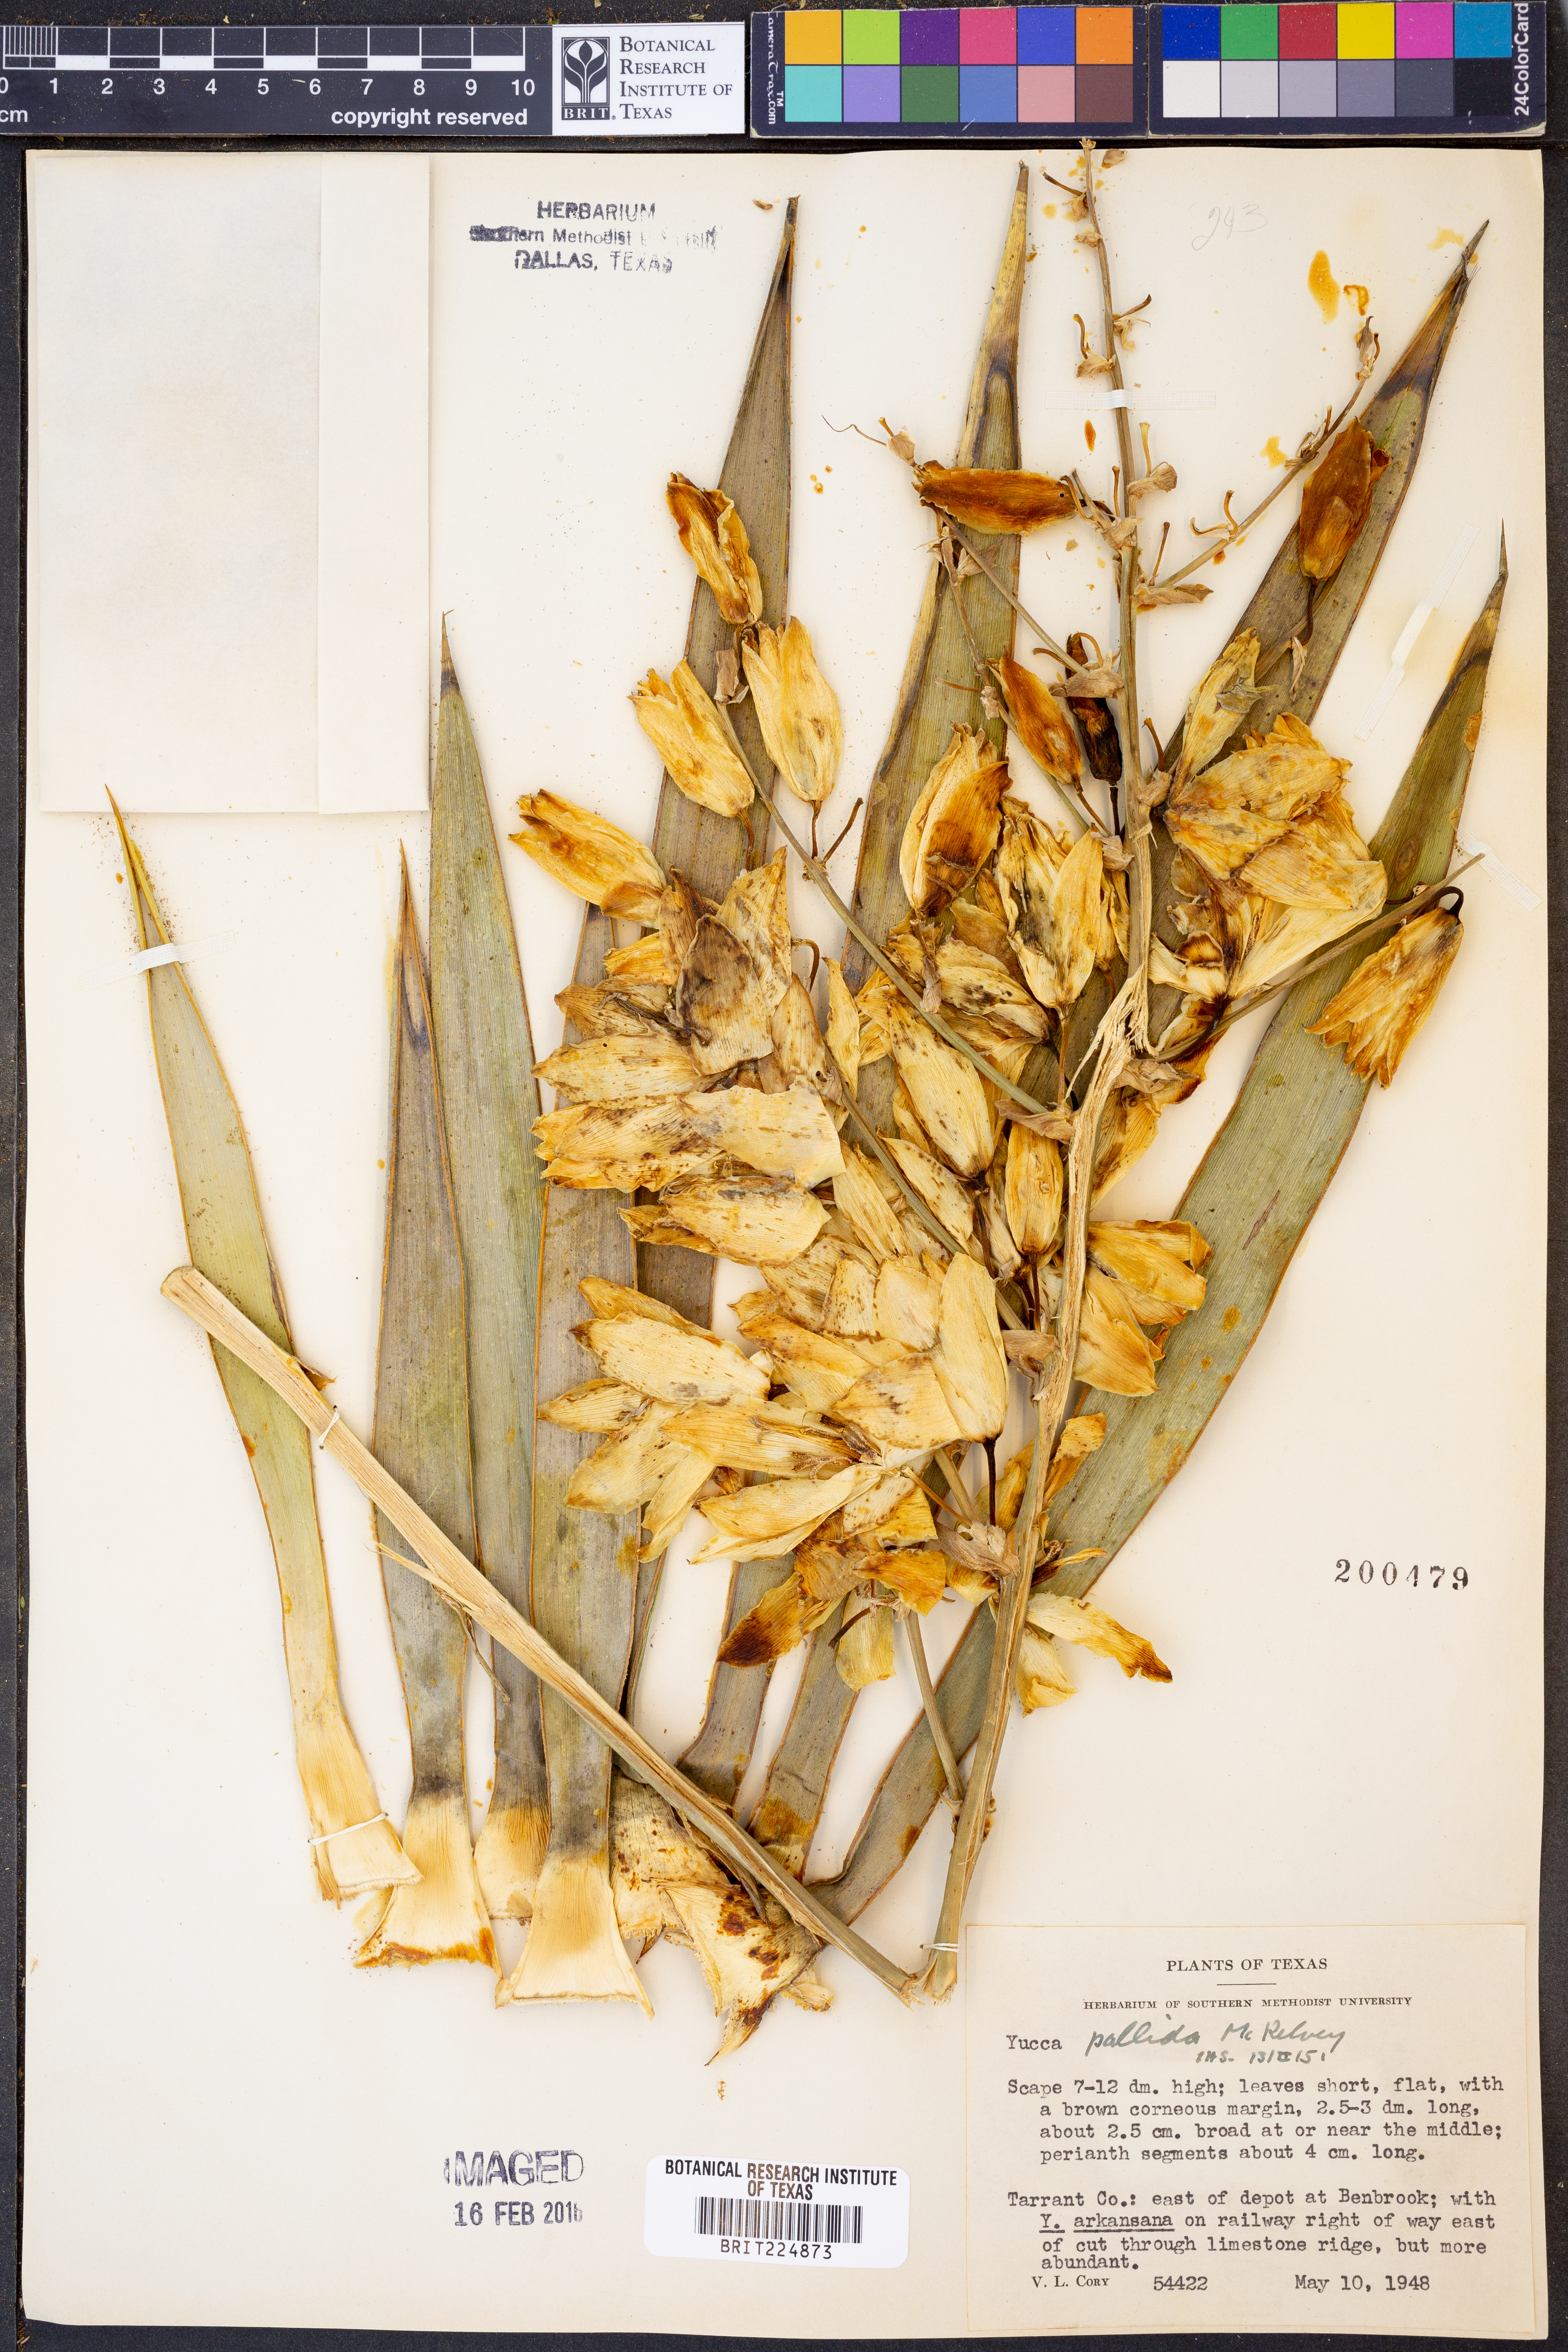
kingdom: Plantae
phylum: Tracheophyta
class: Liliopsida
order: Asparagales
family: Asparagaceae
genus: Yucca
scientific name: Yucca pallida
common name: Pale leaf yucca
